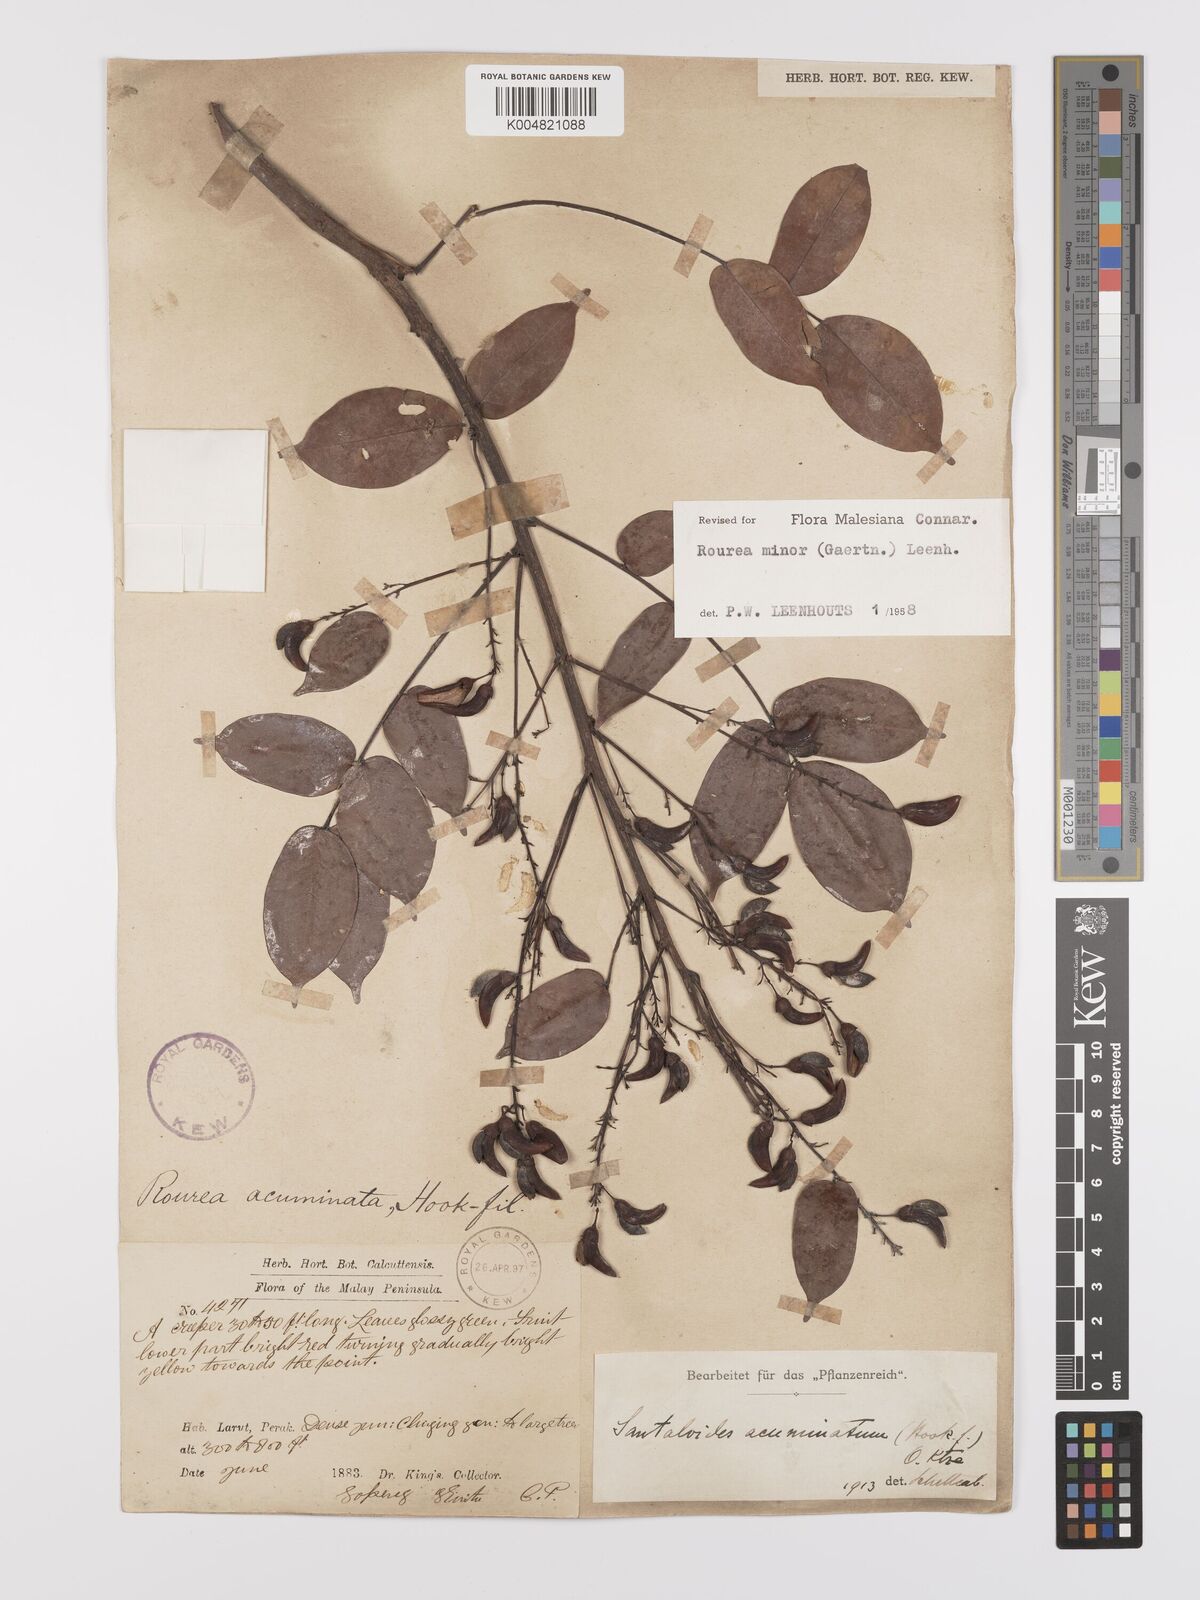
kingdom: Plantae
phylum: Tracheophyta
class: Magnoliopsida
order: Oxalidales
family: Connaraceae
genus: Rourea
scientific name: Rourea minor
